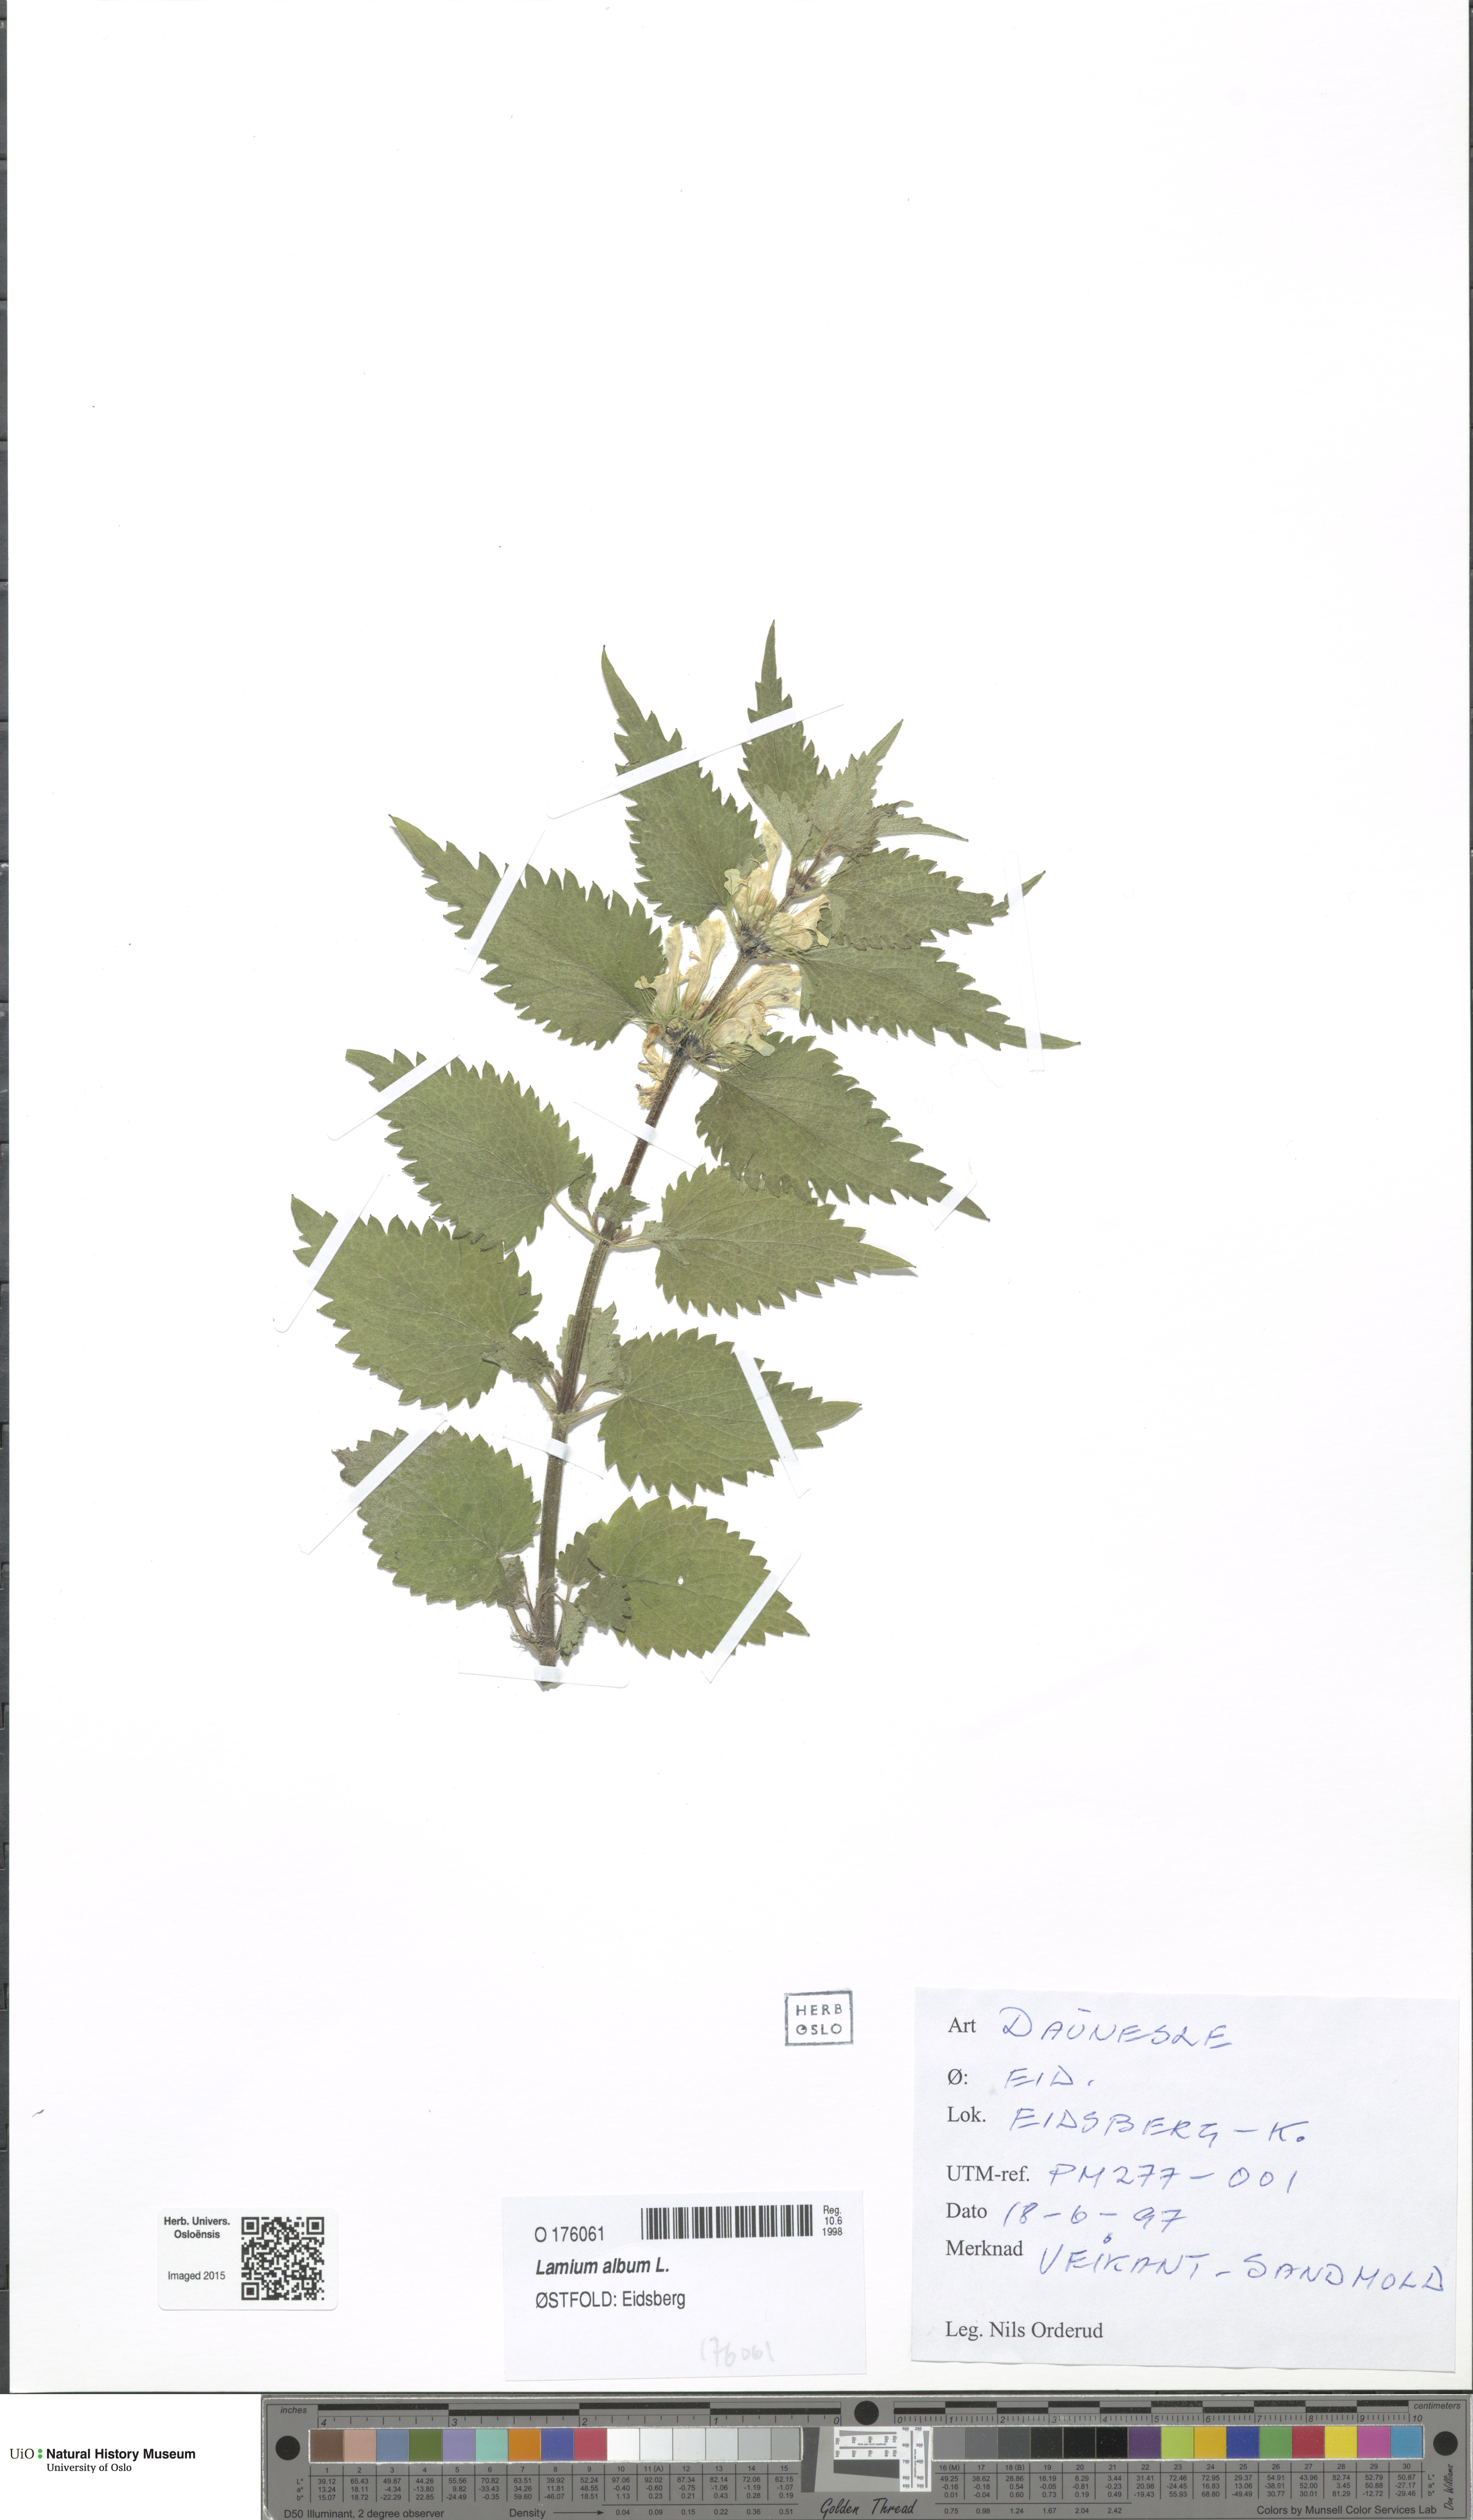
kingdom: Plantae
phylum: Tracheophyta
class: Magnoliopsida
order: Lamiales
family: Lamiaceae
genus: Lamium
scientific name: Lamium album
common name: White dead-nettle
